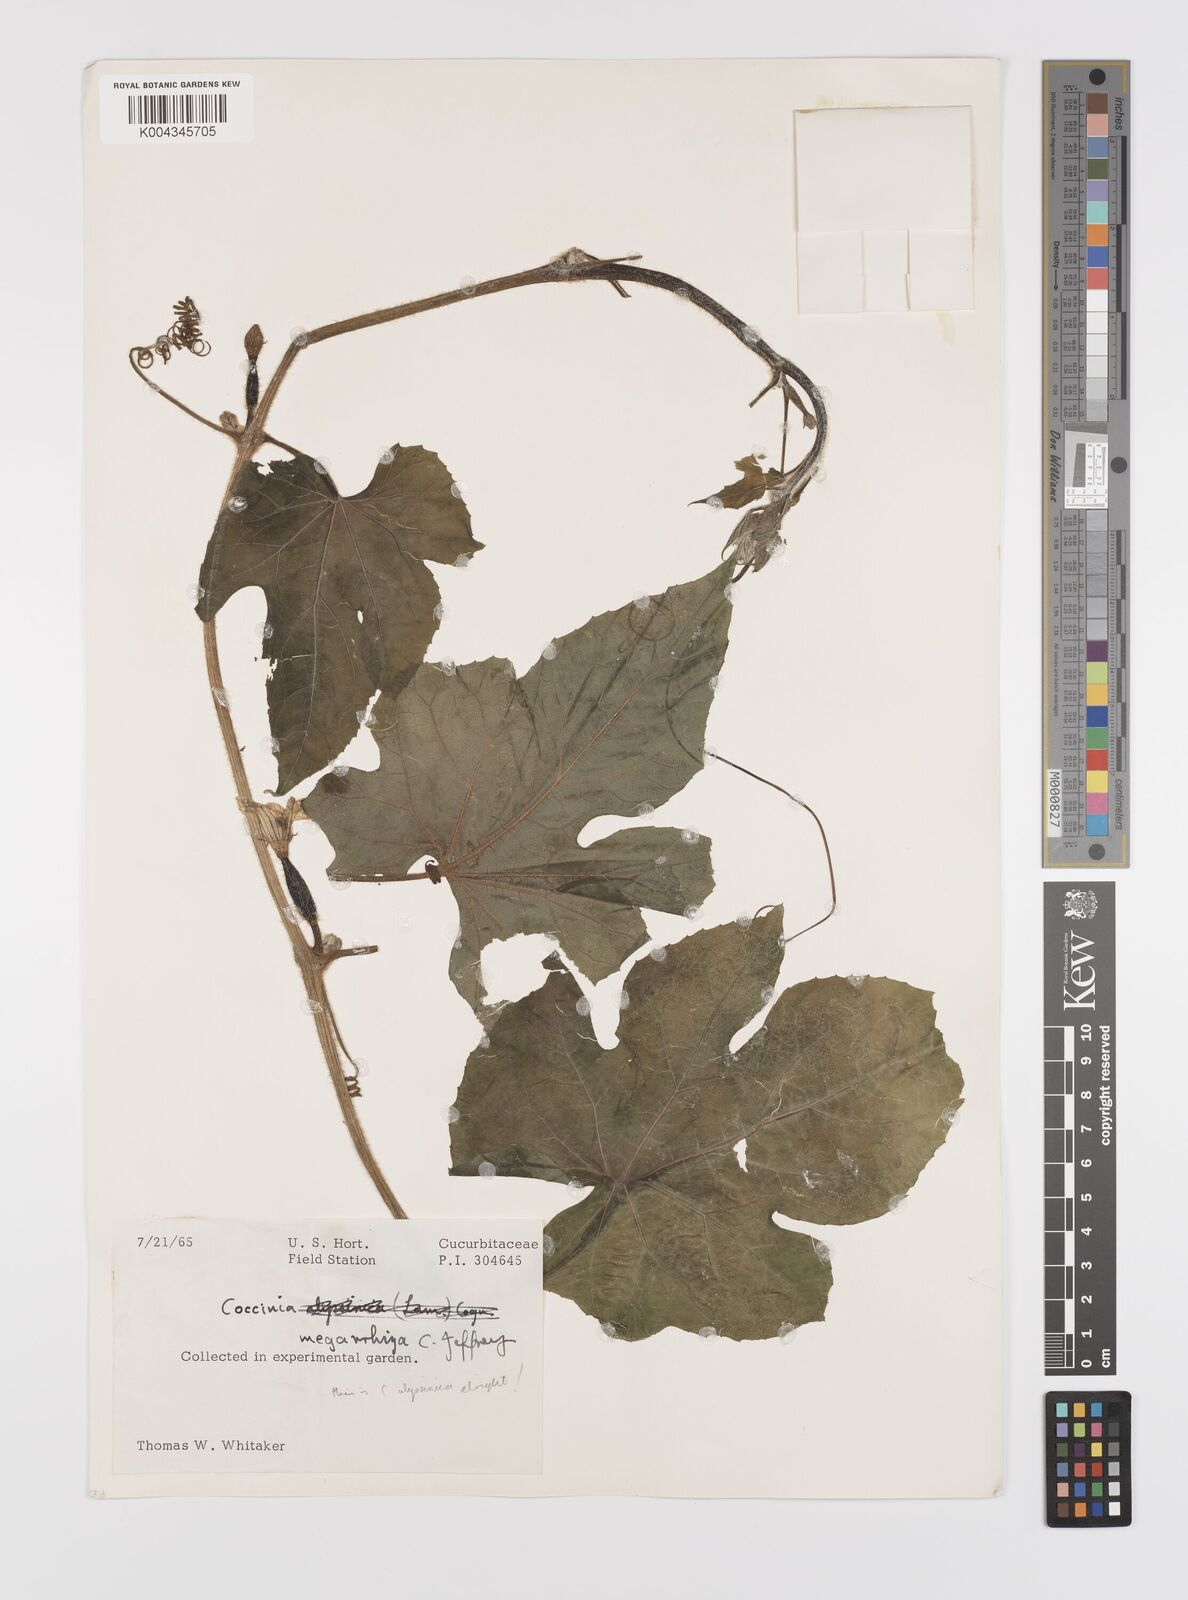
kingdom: Plantae
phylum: Tracheophyta
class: Magnoliopsida
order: Cucurbitales
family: Cucurbitaceae
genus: Coccinia
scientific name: Coccinia abyssinica
